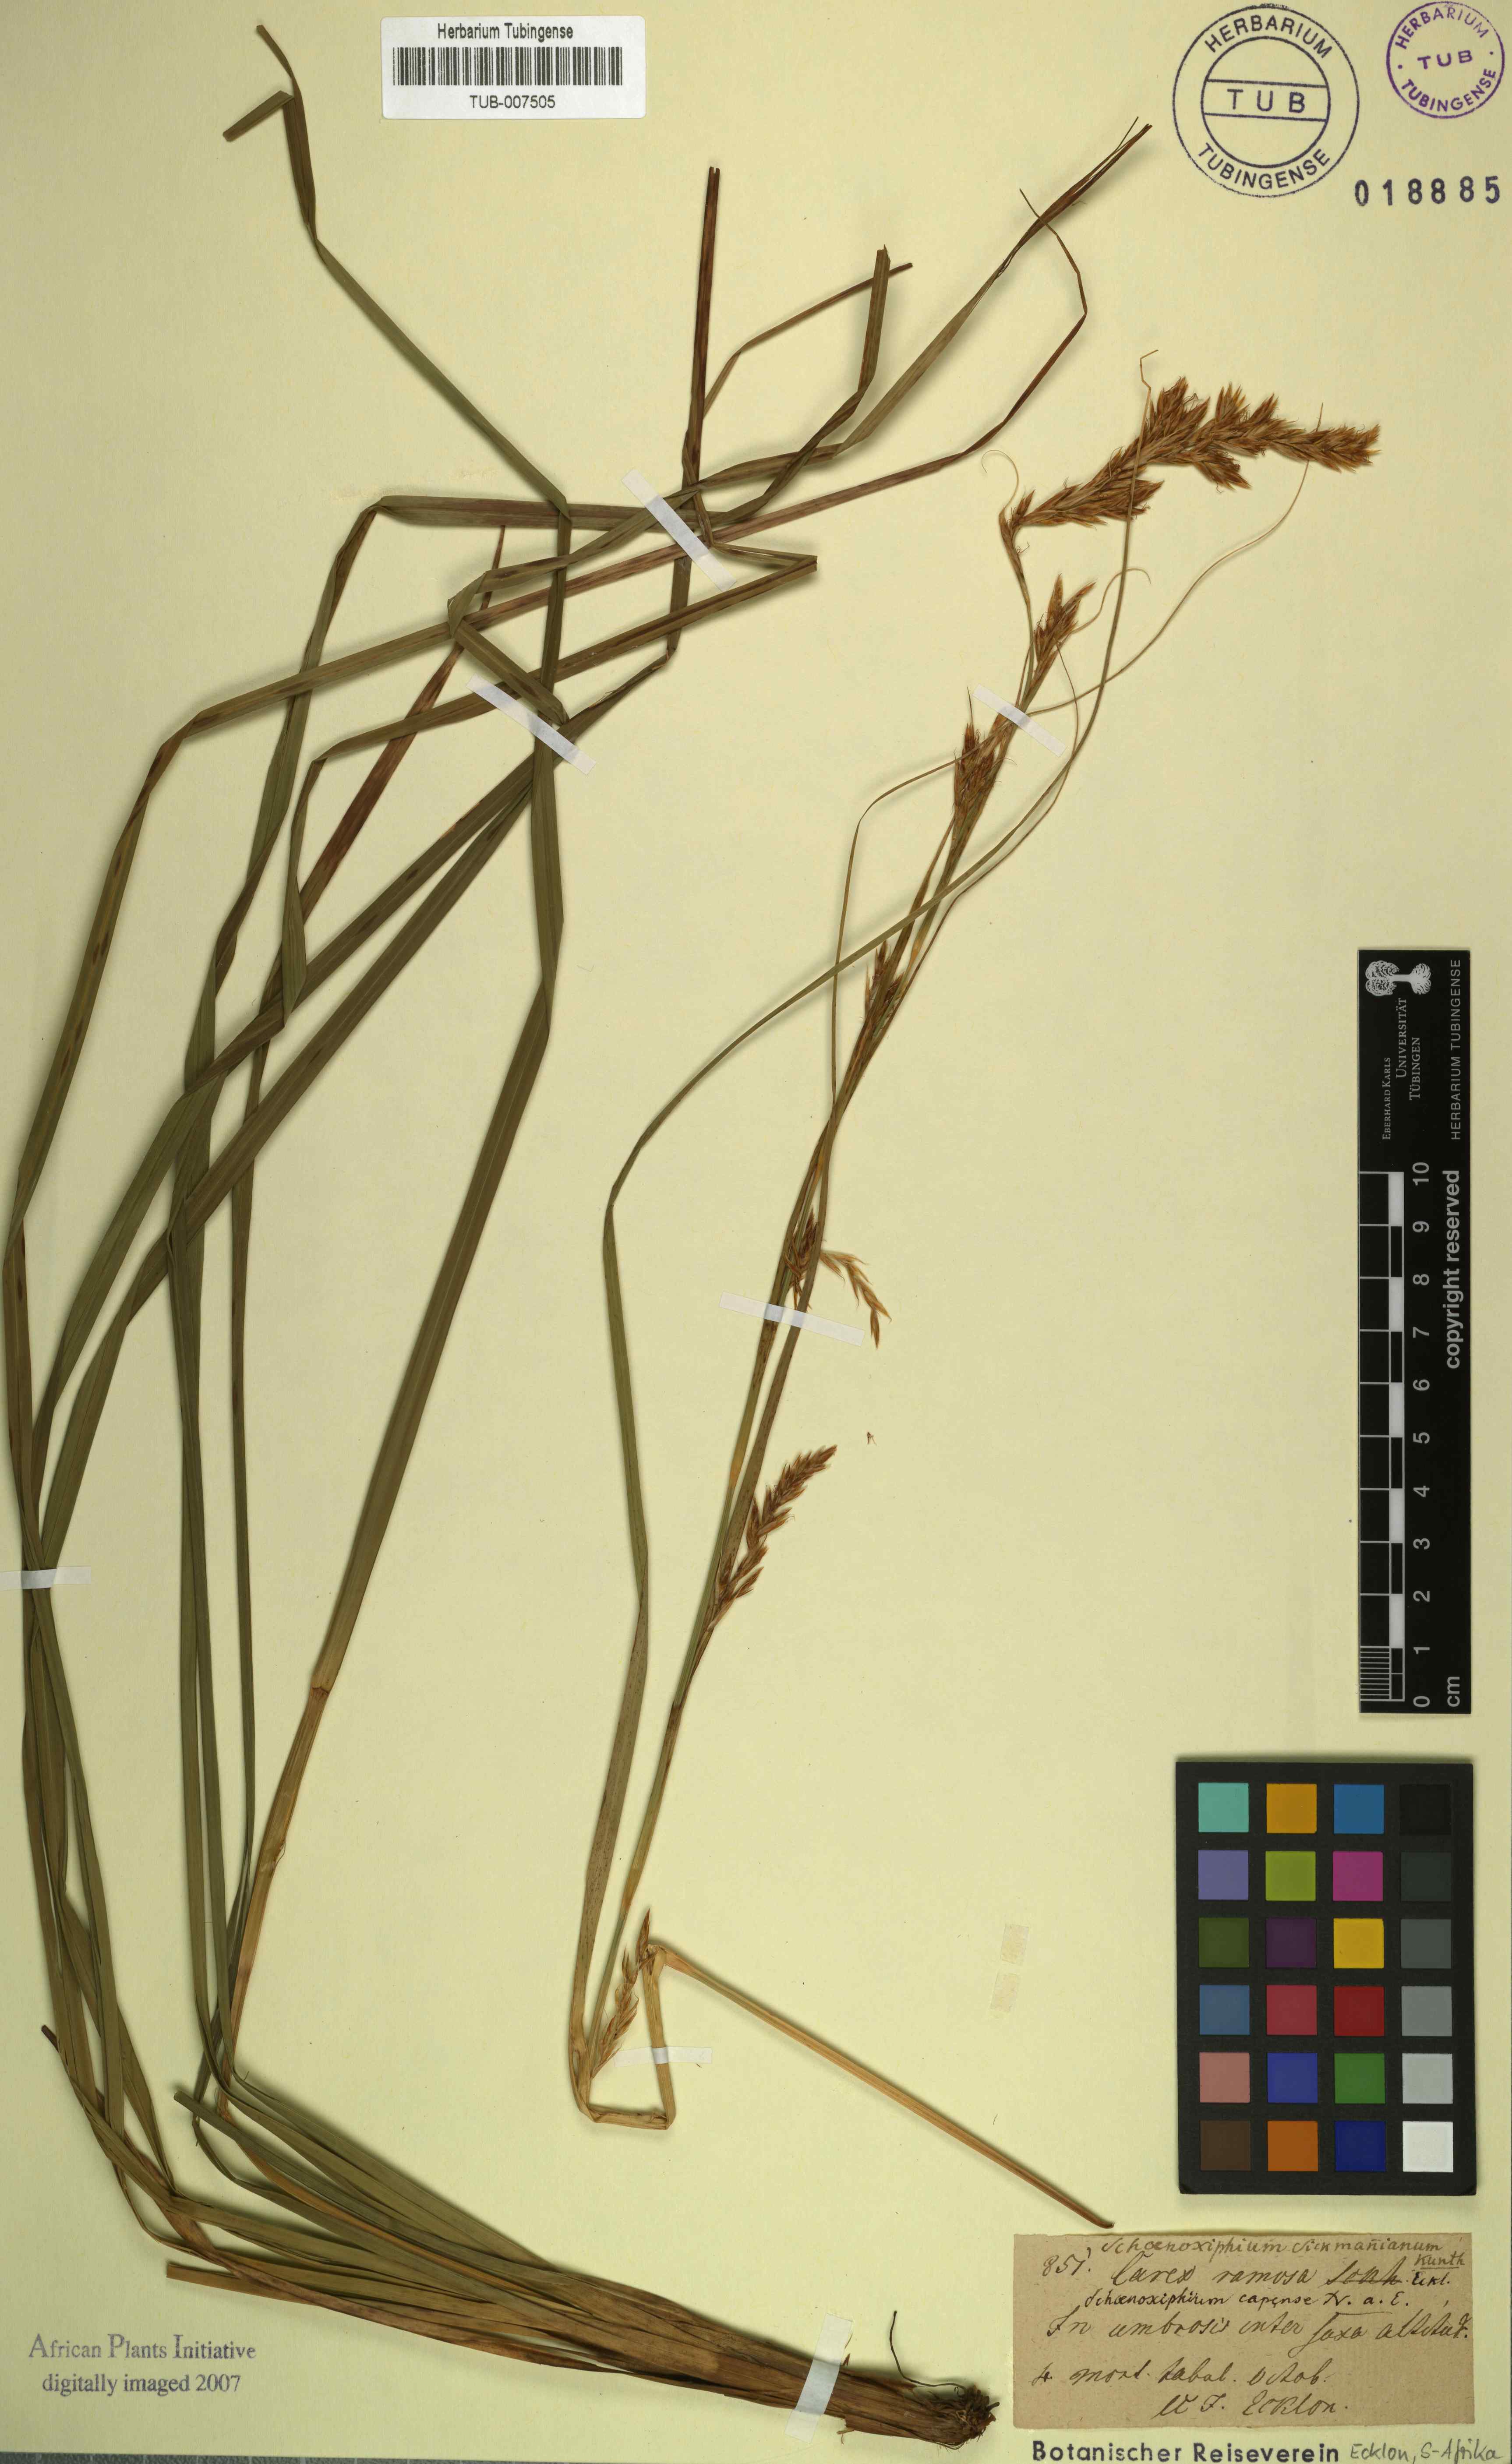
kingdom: Plantae
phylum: Tracheophyta
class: Liliopsida
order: Poales
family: Cyperaceae
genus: Carex
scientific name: Carex lancea
